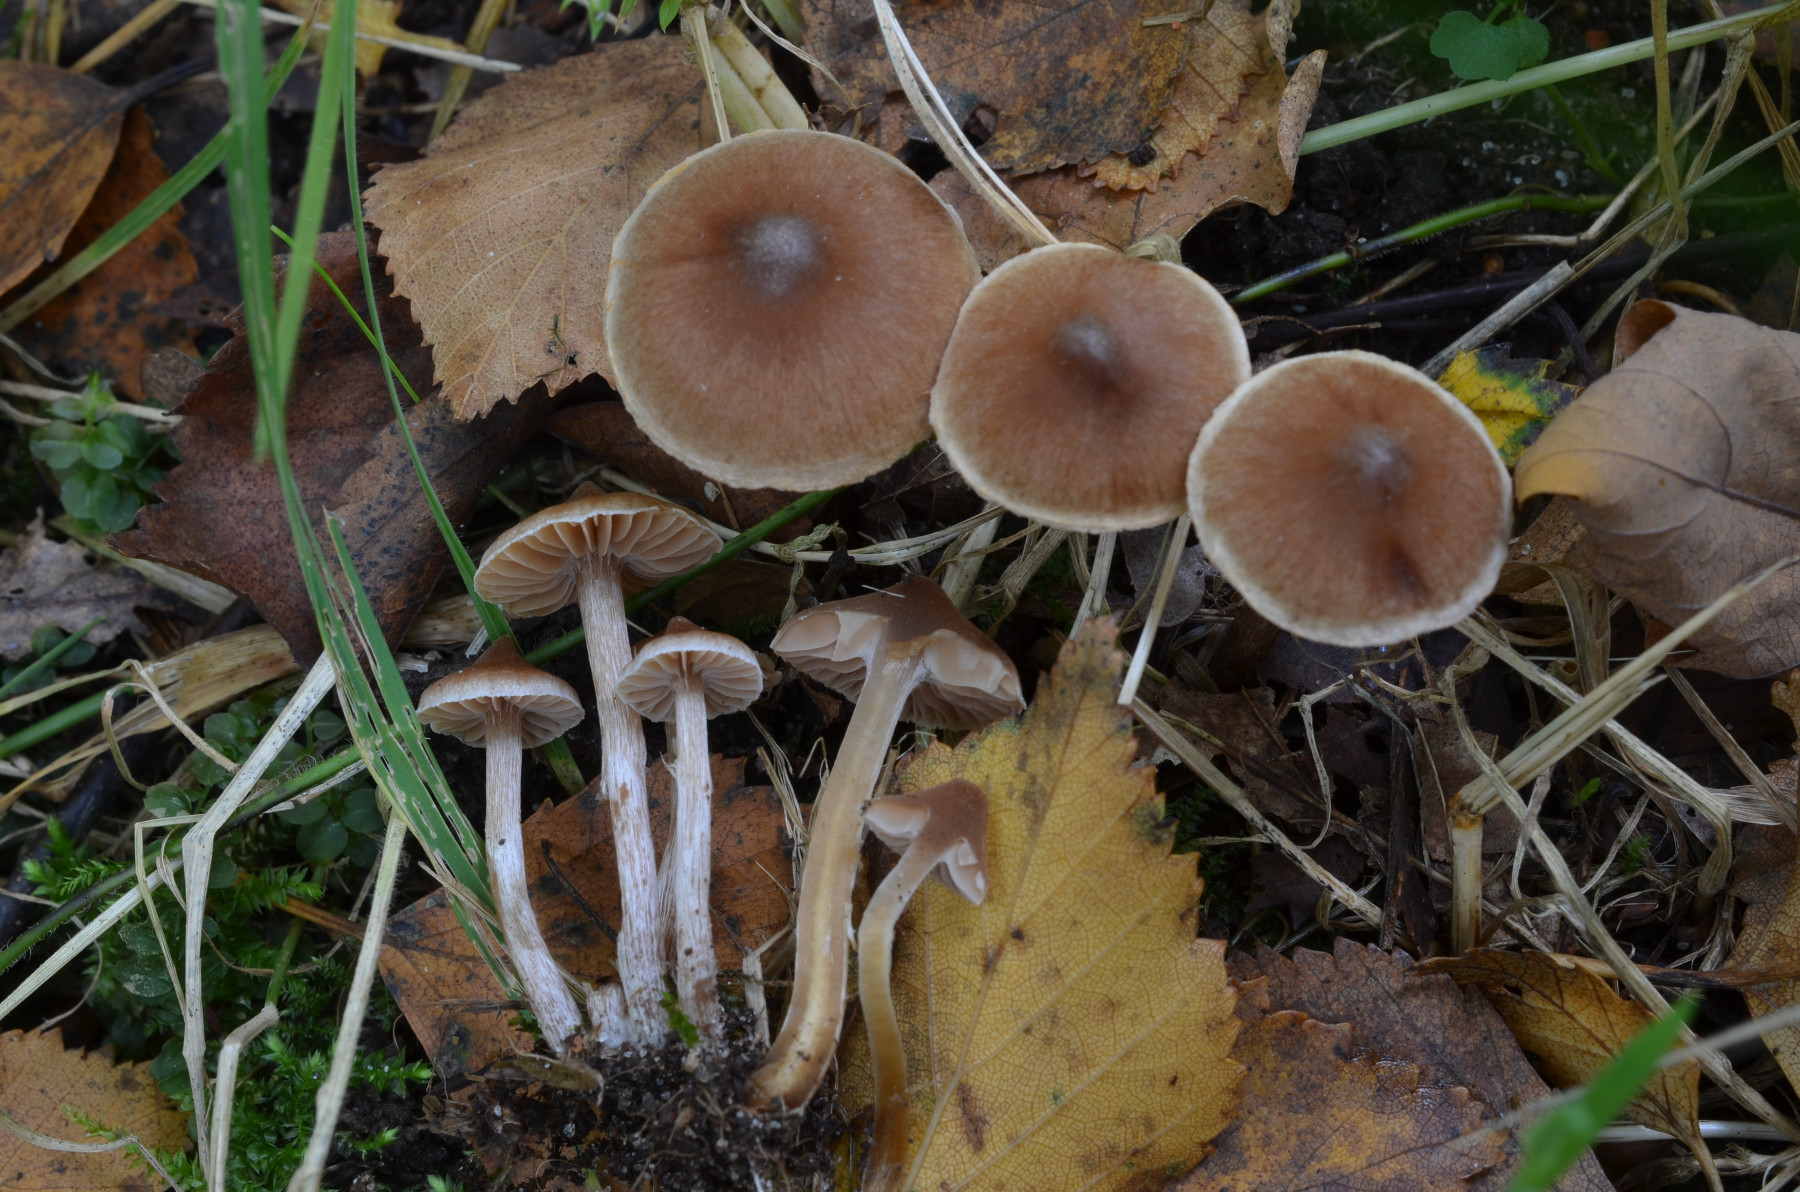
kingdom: Fungi
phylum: Basidiomycota
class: Agaricomycetes
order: Agaricales
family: Cortinariaceae
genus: Cortinarius
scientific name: Cortinarius minusculus
